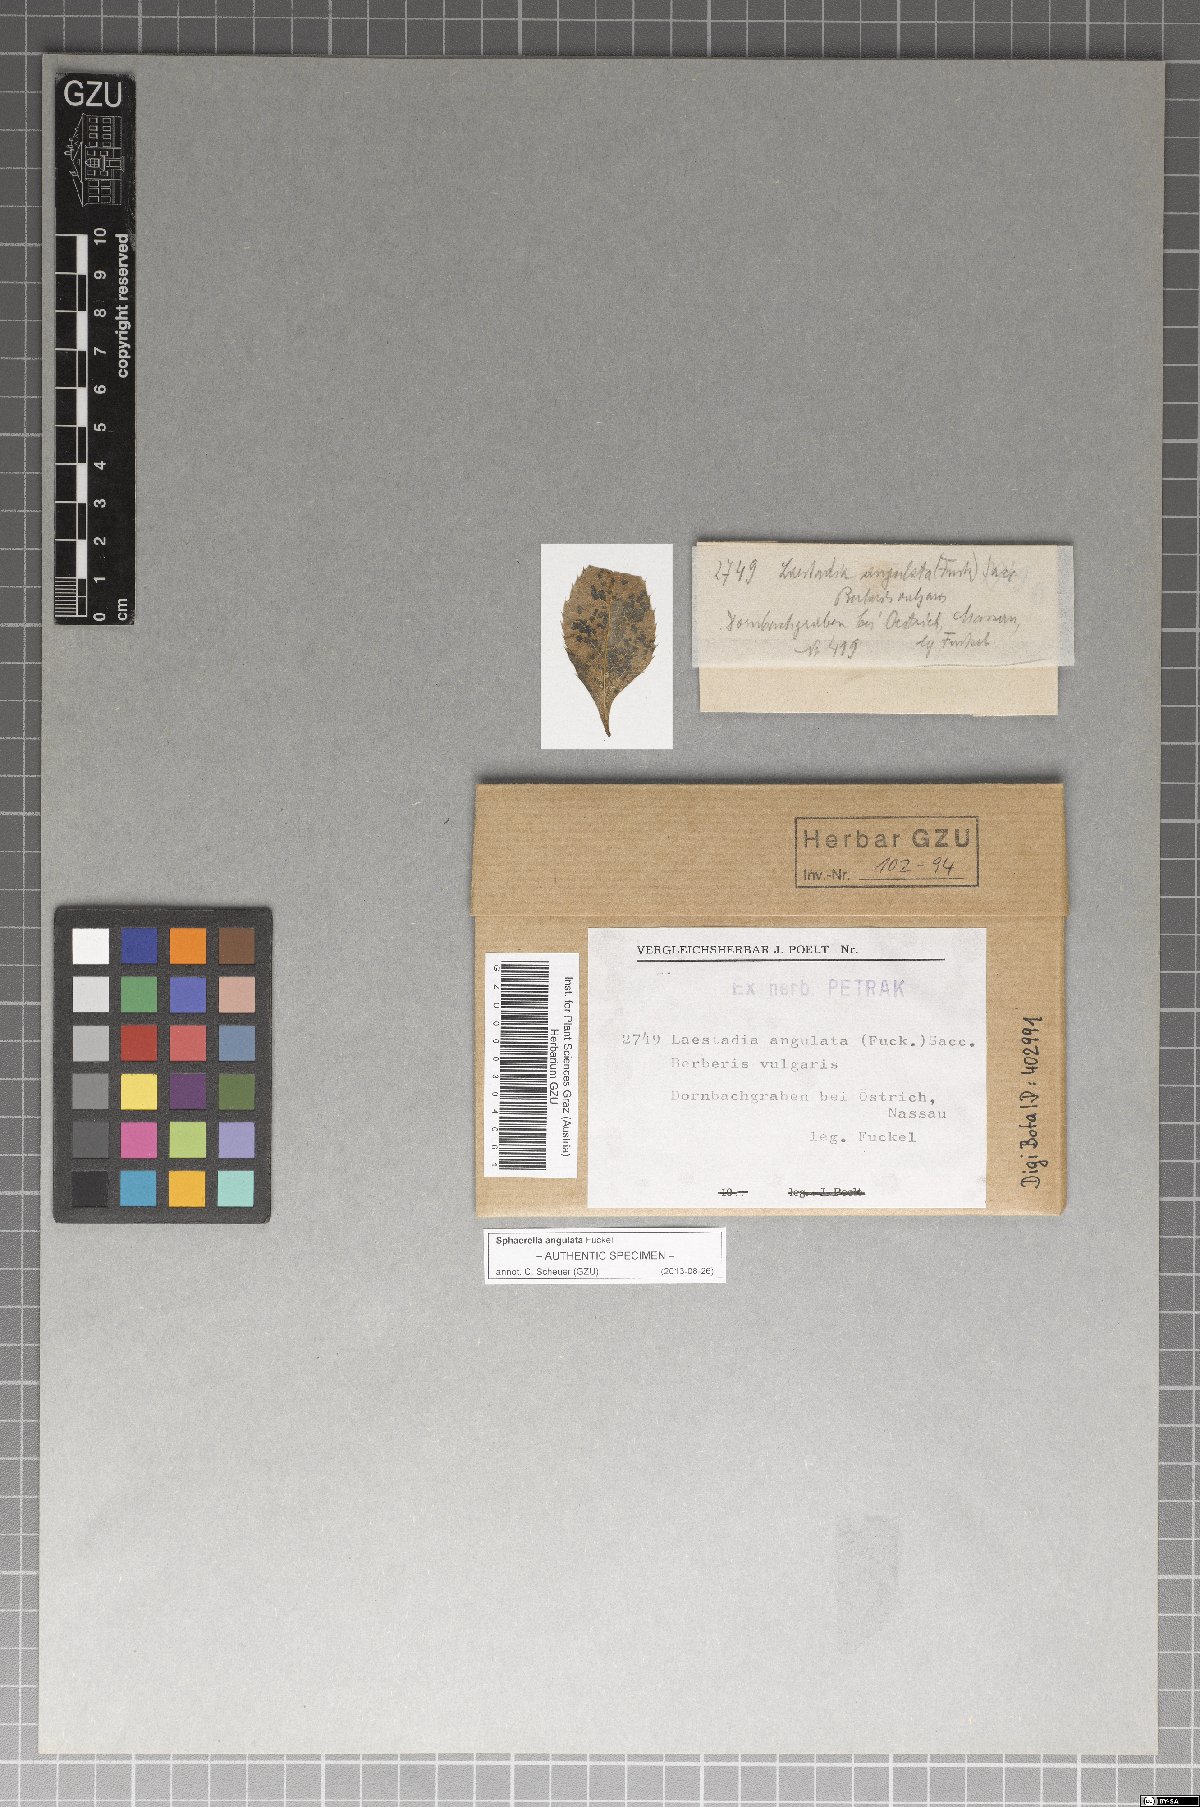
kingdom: Fungi
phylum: Ascomycota
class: Dothideomycetes
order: Mycosphaerellales
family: Mycosphaerellaceae
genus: Sphaerella
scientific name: Sphaerella
